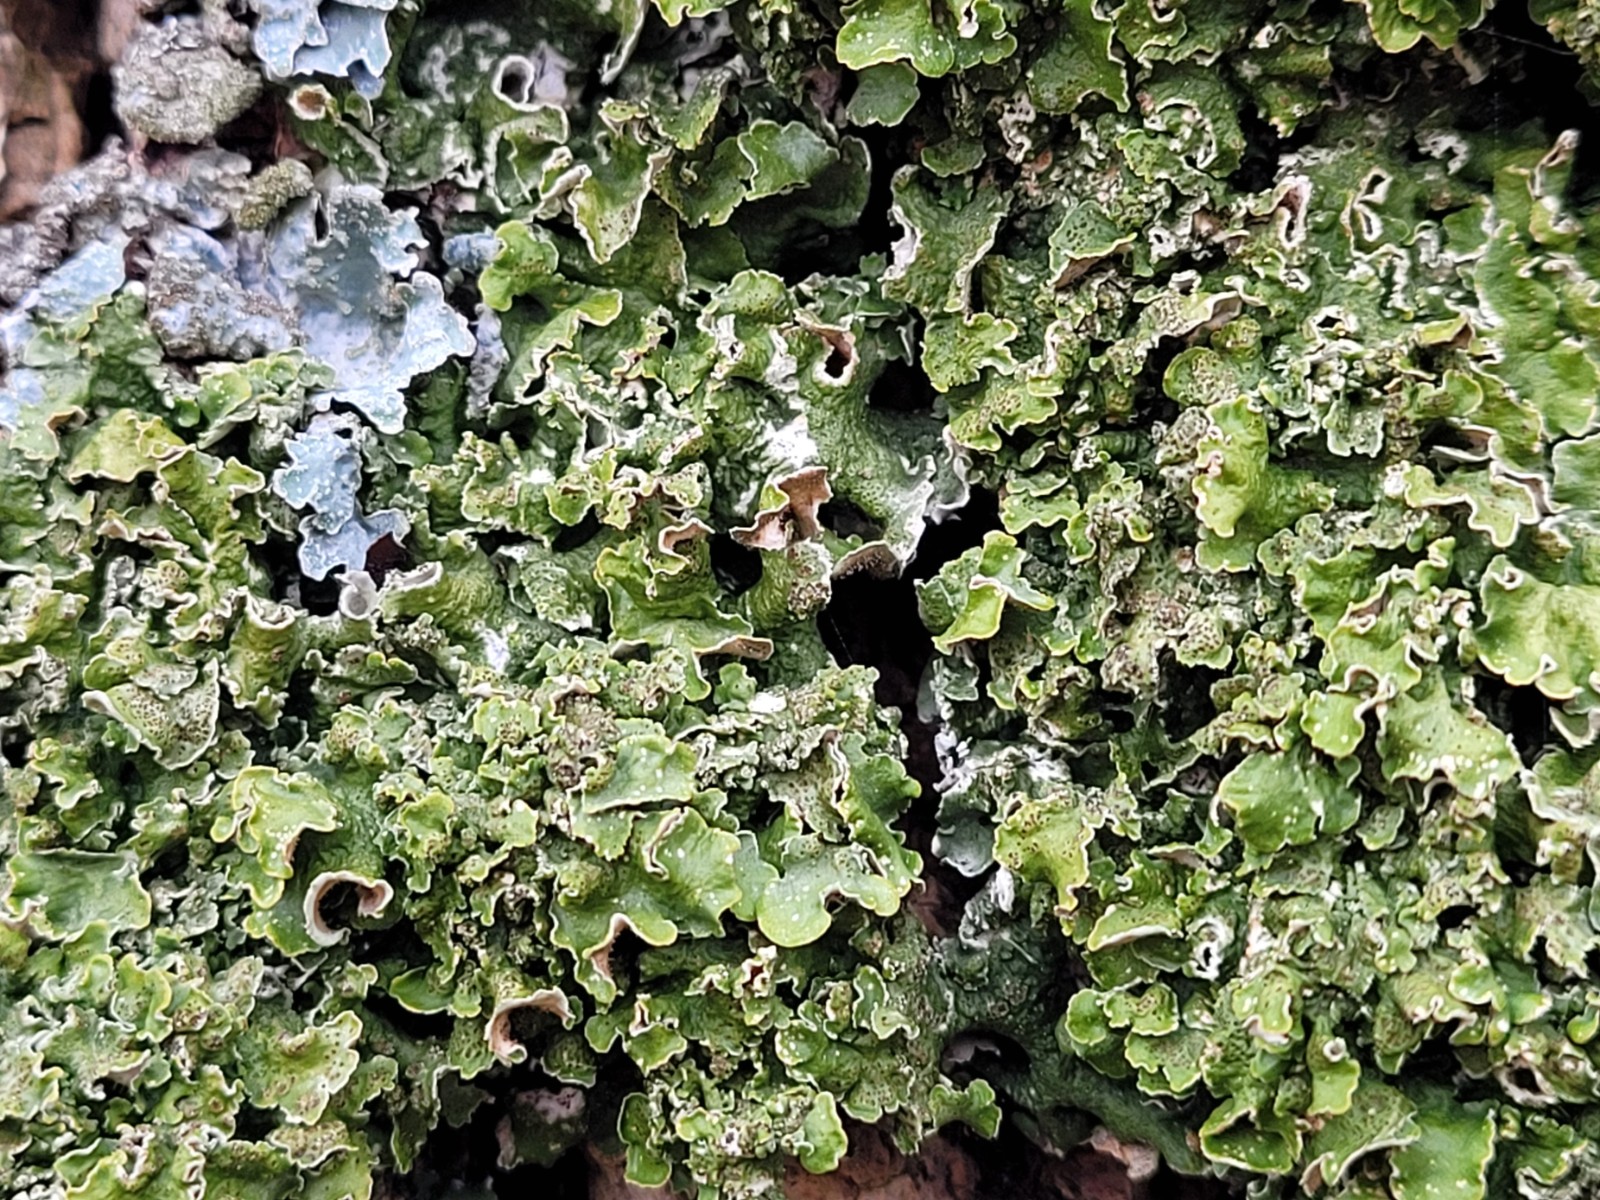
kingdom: Fungi
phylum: Ascomycota
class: Lecanoromycetes
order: Lecanorales
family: Parmeliaceae
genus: Pleurosticta
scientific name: Pleurosticta acetabulum
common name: stor skållav
